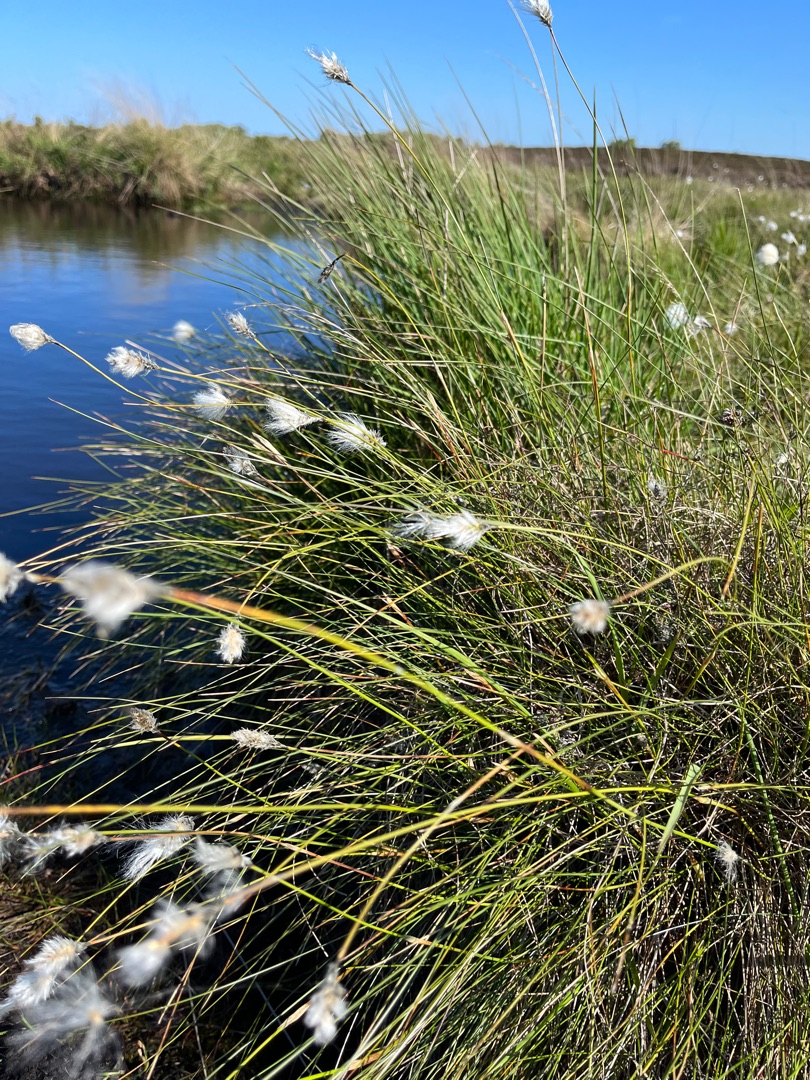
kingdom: Plantae
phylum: Tracheophyta
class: Liliopsida
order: Poales
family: Cyperaceae
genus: Eriophorum
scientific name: Eriophorum vaginatum
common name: Tue-kæruld
